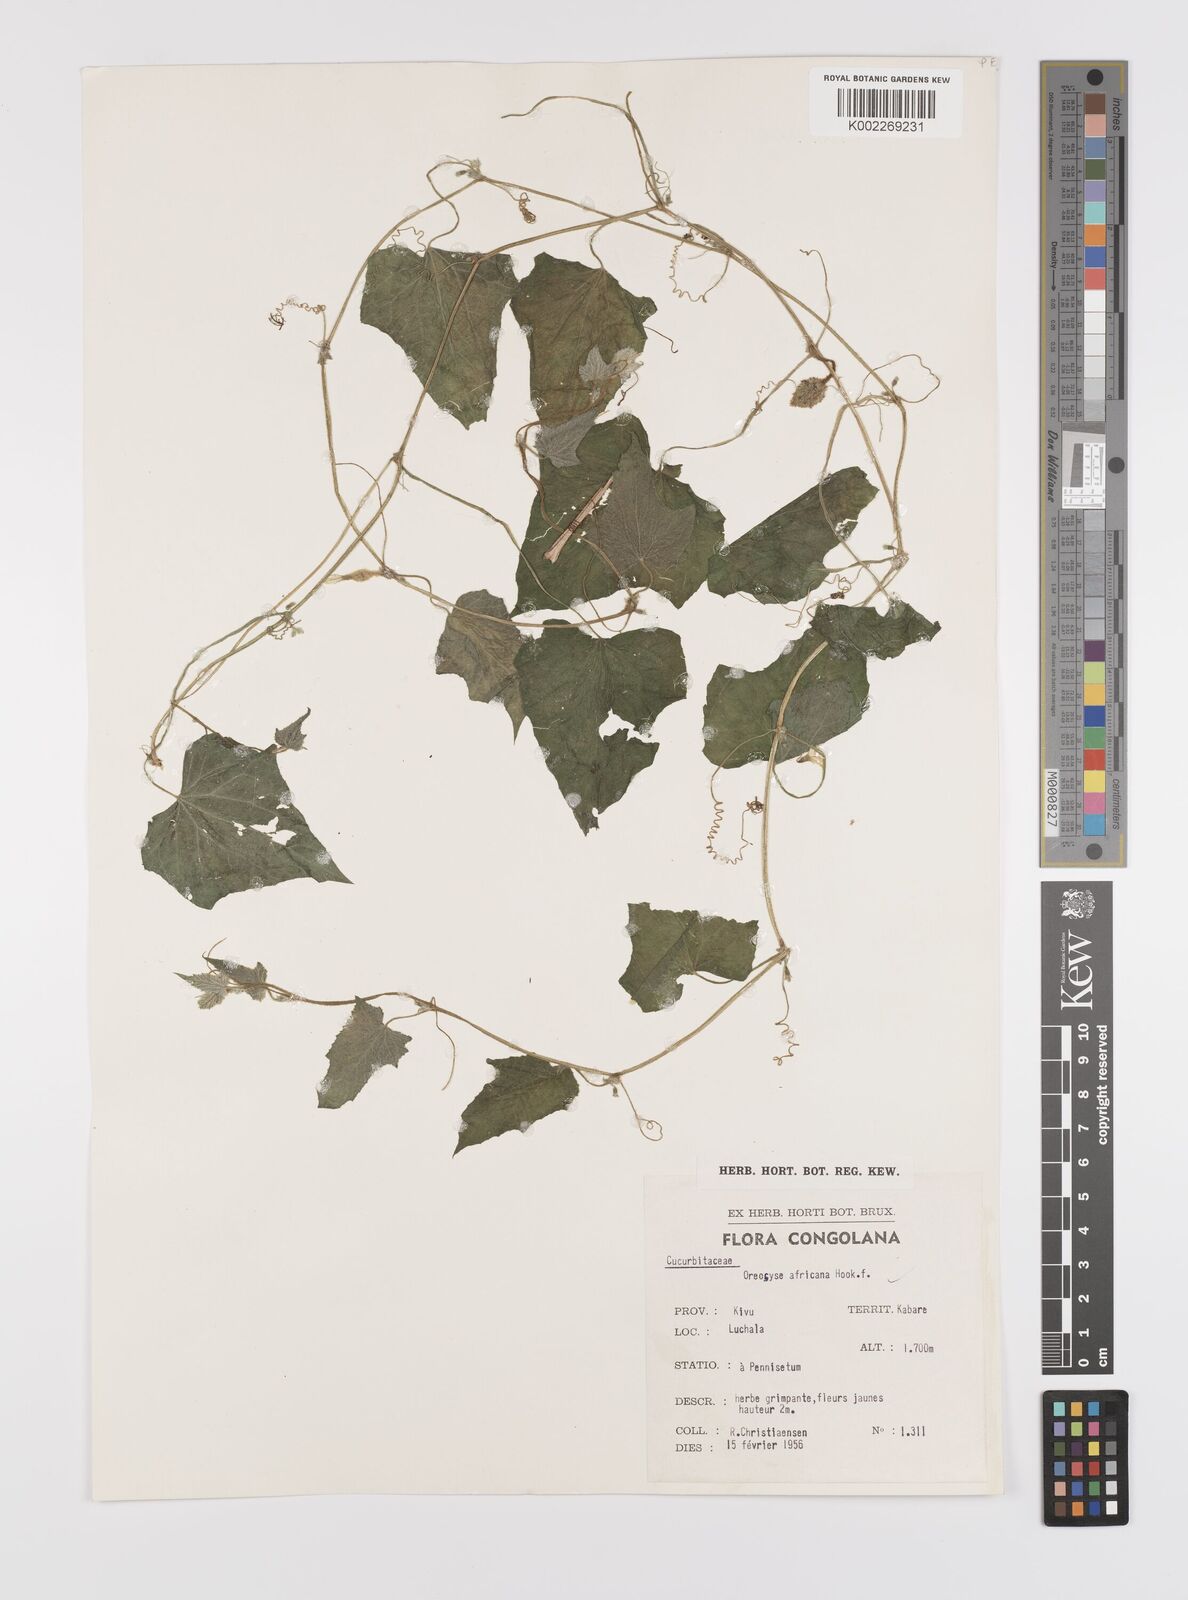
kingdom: Plantae
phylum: Tracheophyta
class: Magnoliopsida
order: Cucurbitales
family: Cucurbitaceae
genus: Cucumis
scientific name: Cucumis oreosyce
